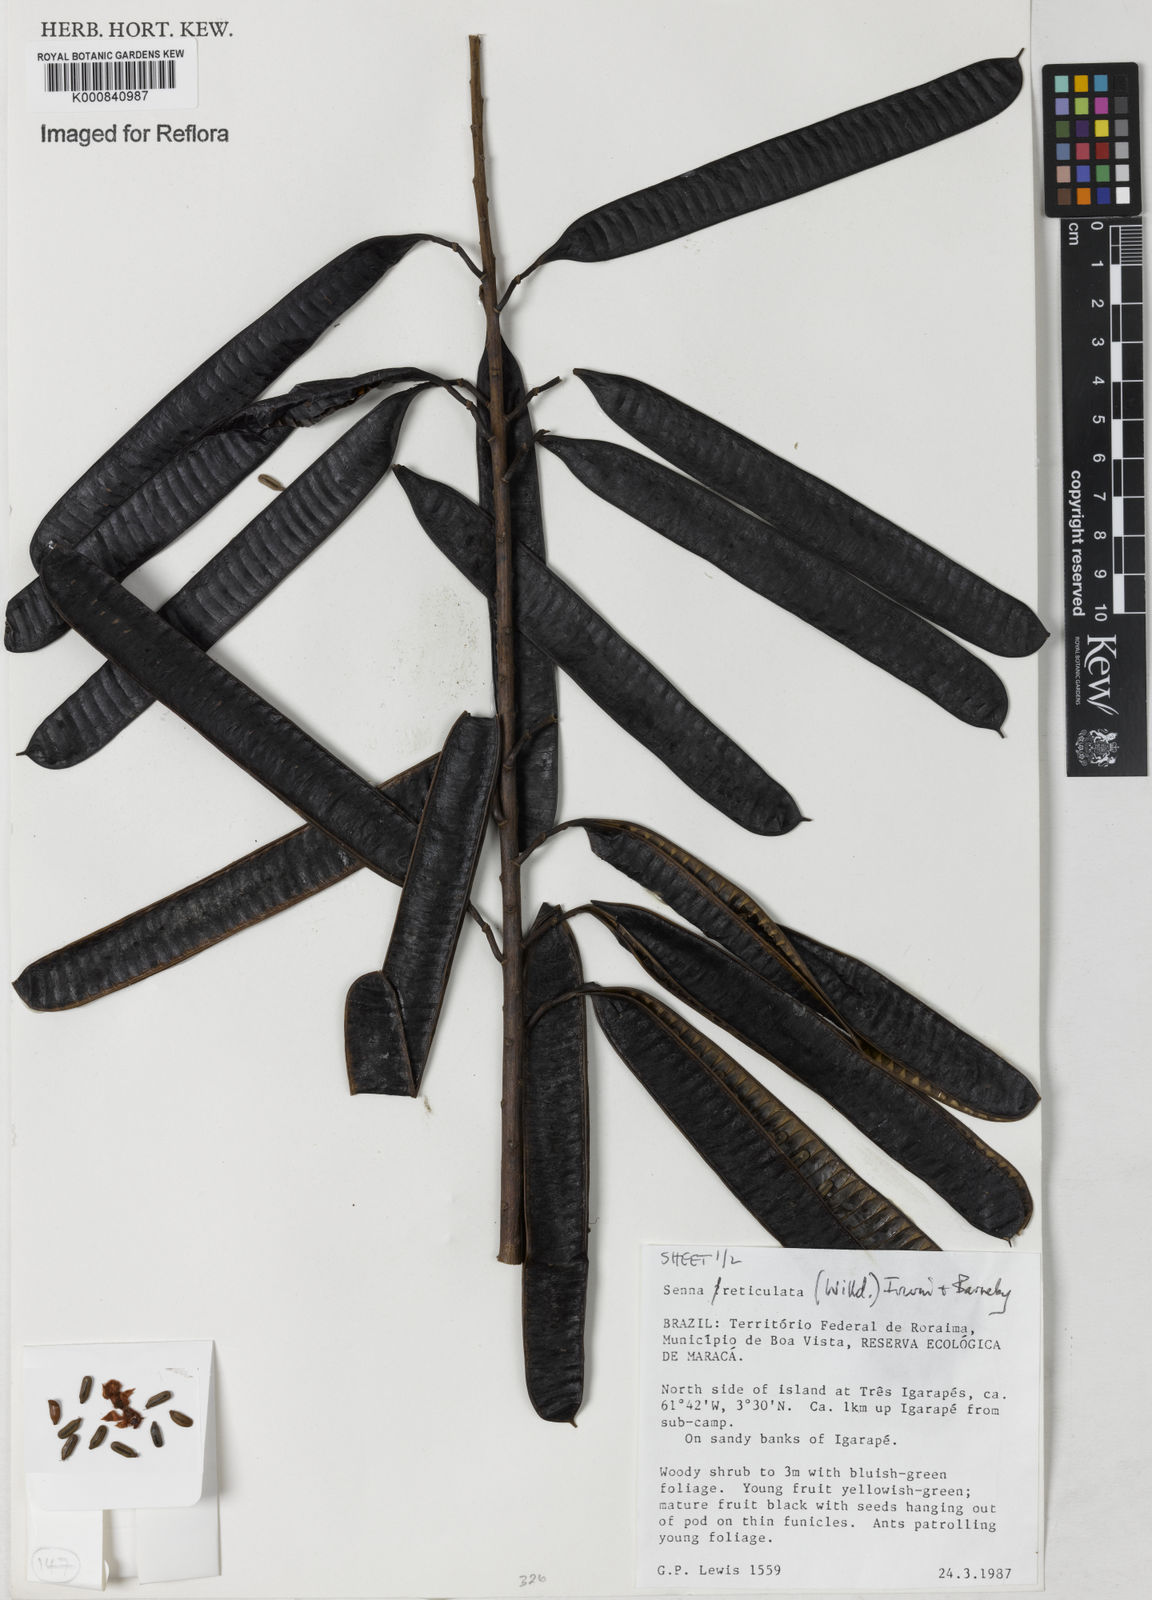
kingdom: Plantae
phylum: Tracheophyta
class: Magnoliopsida
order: Fabales
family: Fabaceae
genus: Senna
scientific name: Senna reticulata
